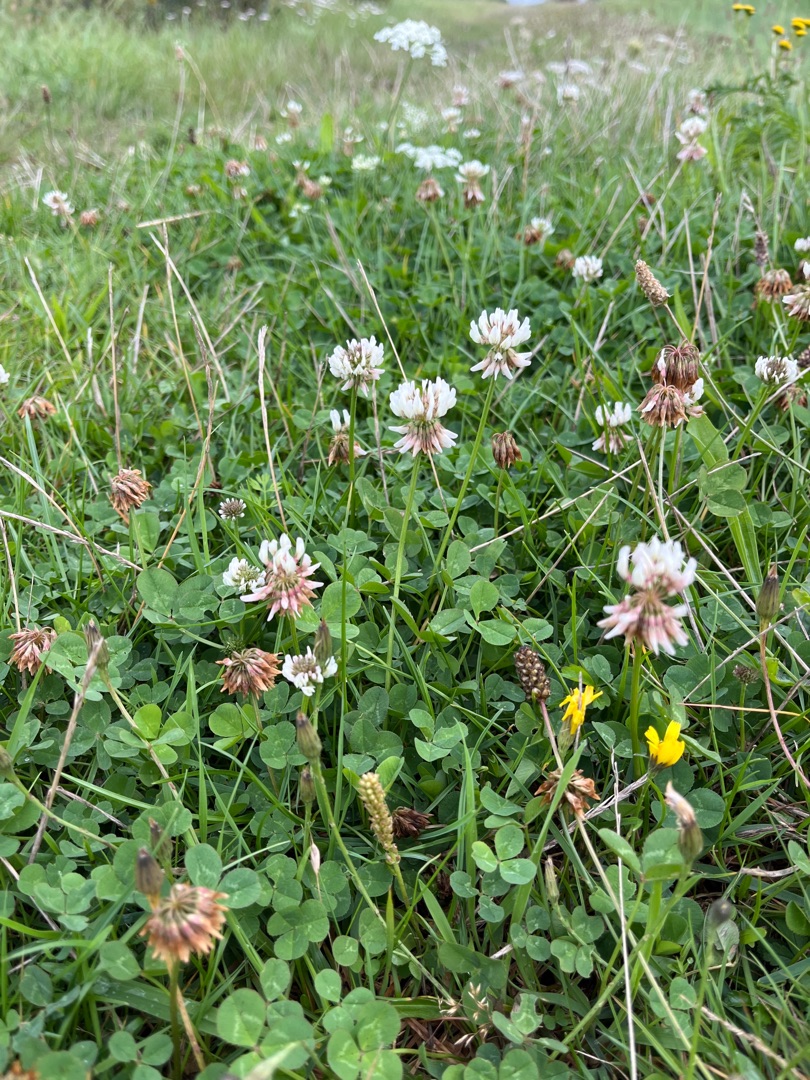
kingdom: Plantae
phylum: Tracheophyta
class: Magnoliopsida
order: Fabales
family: Fabaceae
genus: Trifolium
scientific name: Trifolium repens
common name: Hvid-kløver
